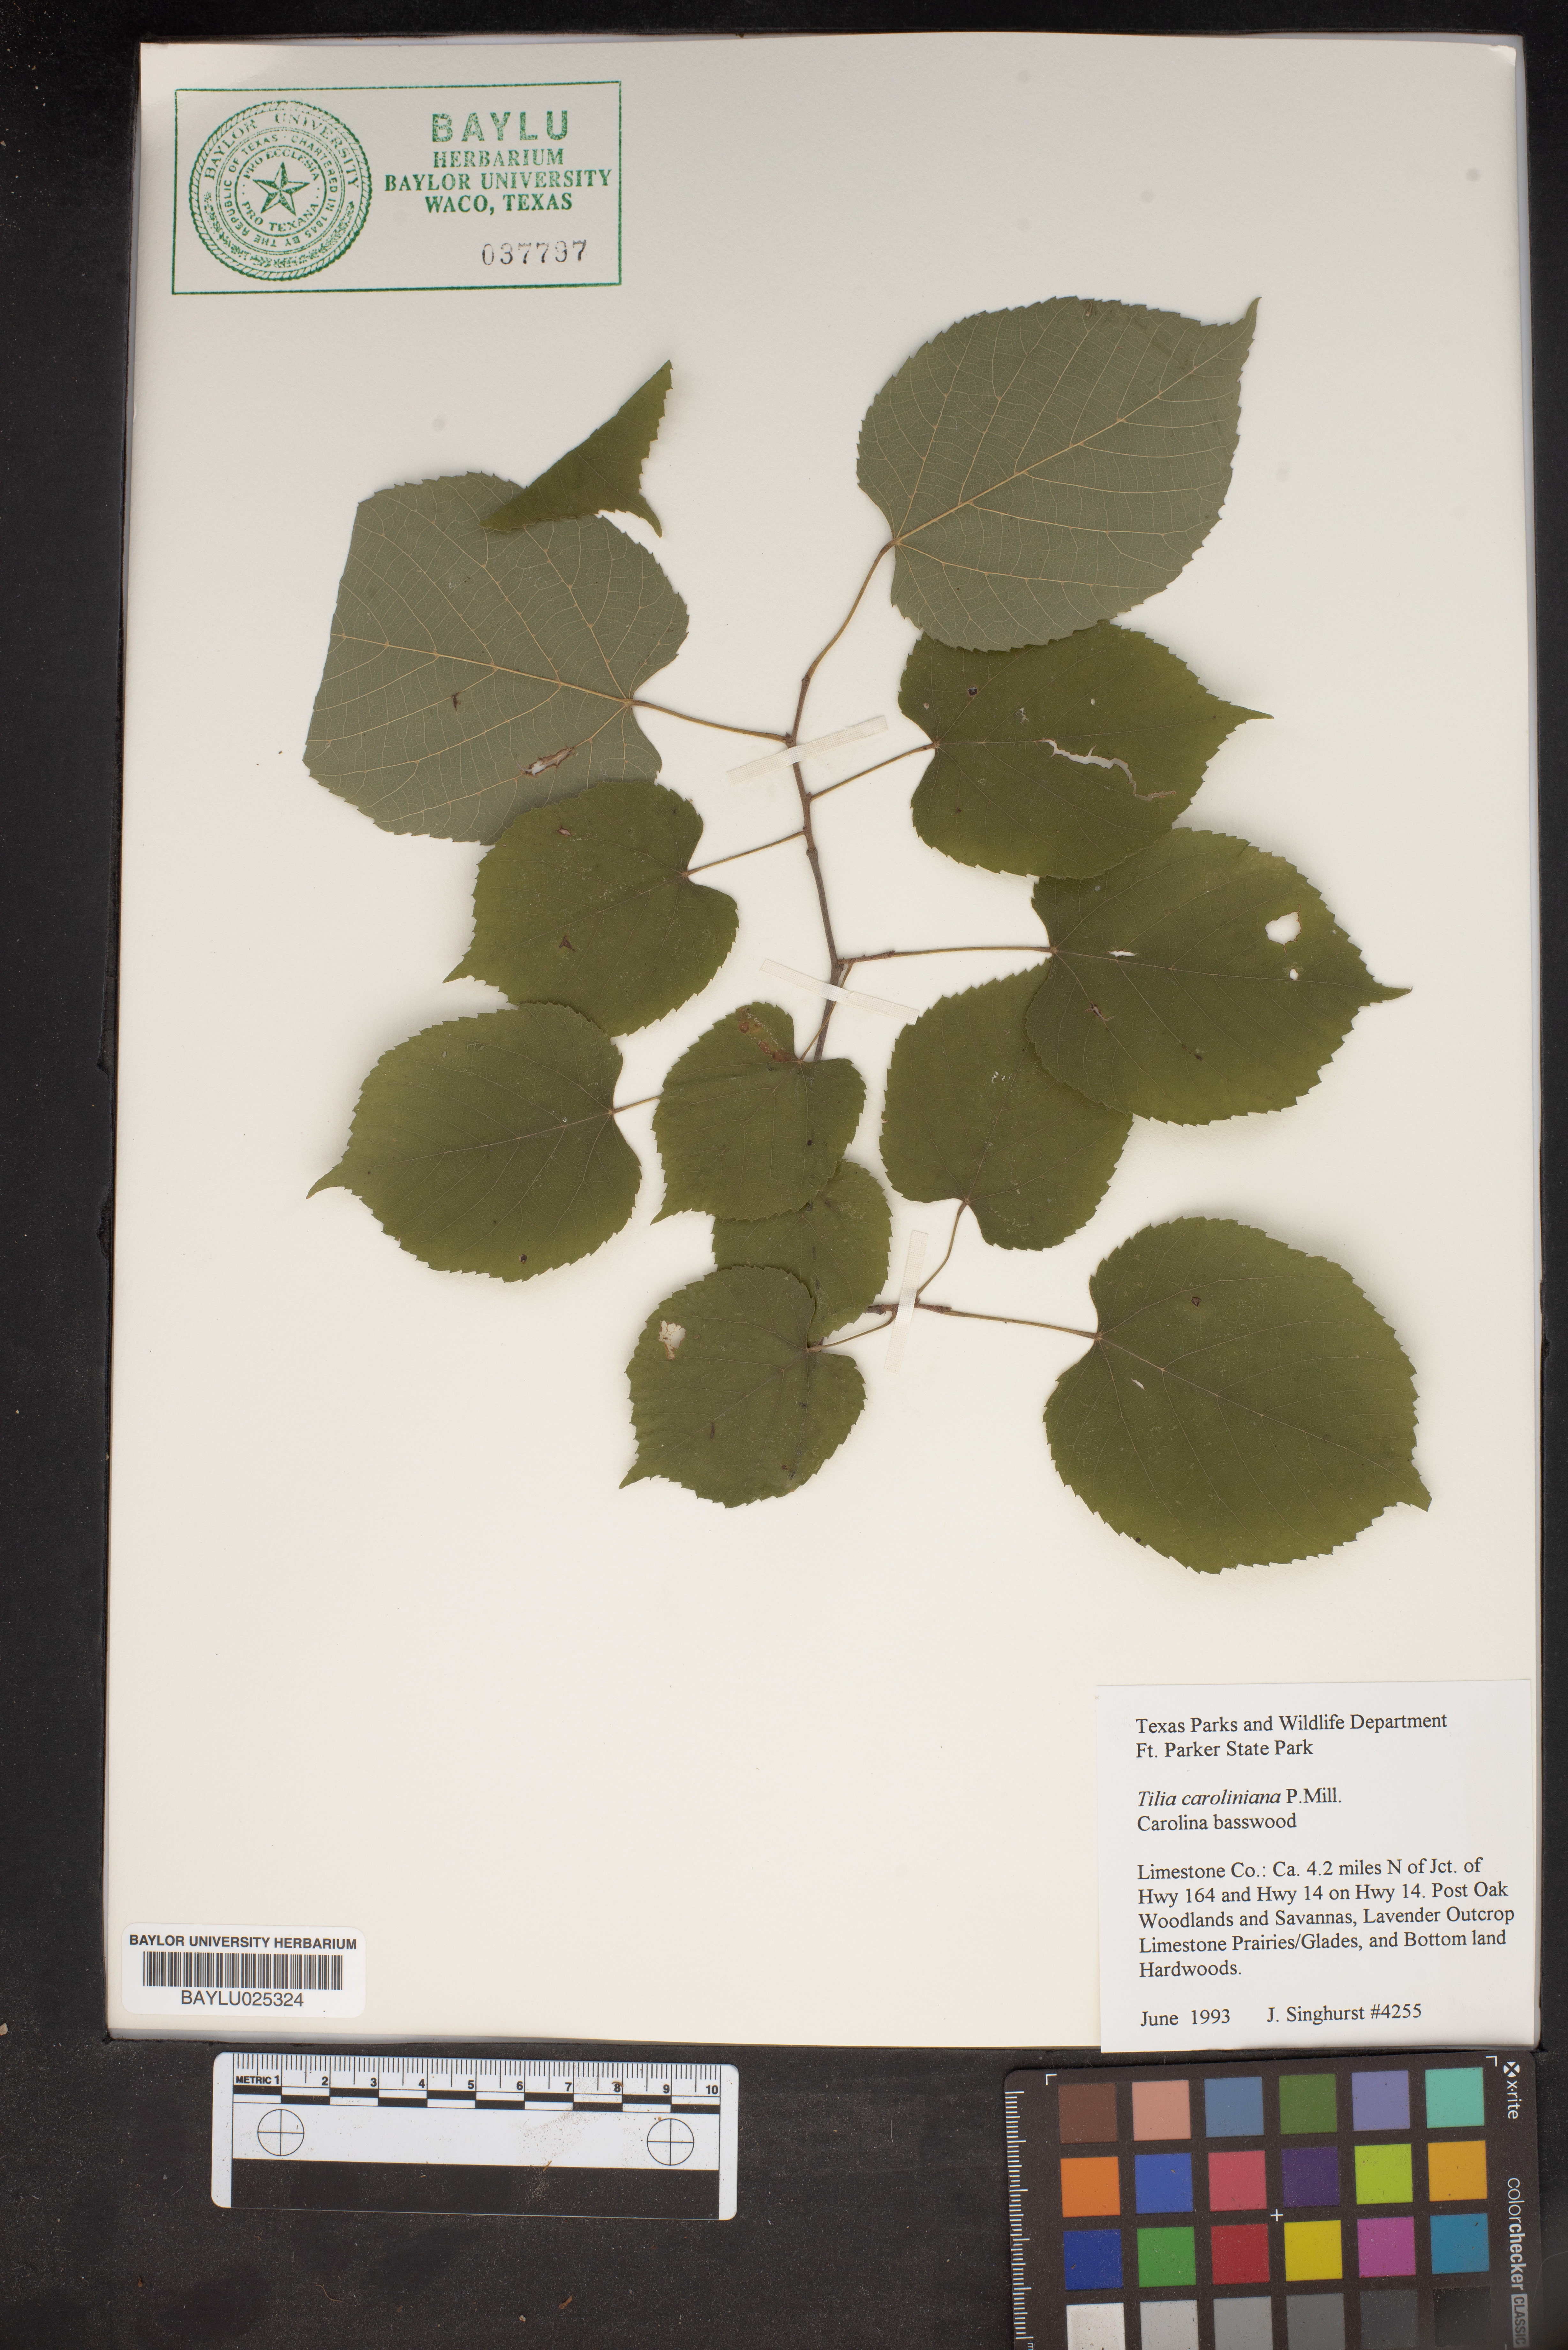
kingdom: Plantae
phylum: Tracheophyta
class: Magnoliopsida
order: Malvales
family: Malvaceae
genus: Tilia
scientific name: Tilia americana
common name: Basswood
